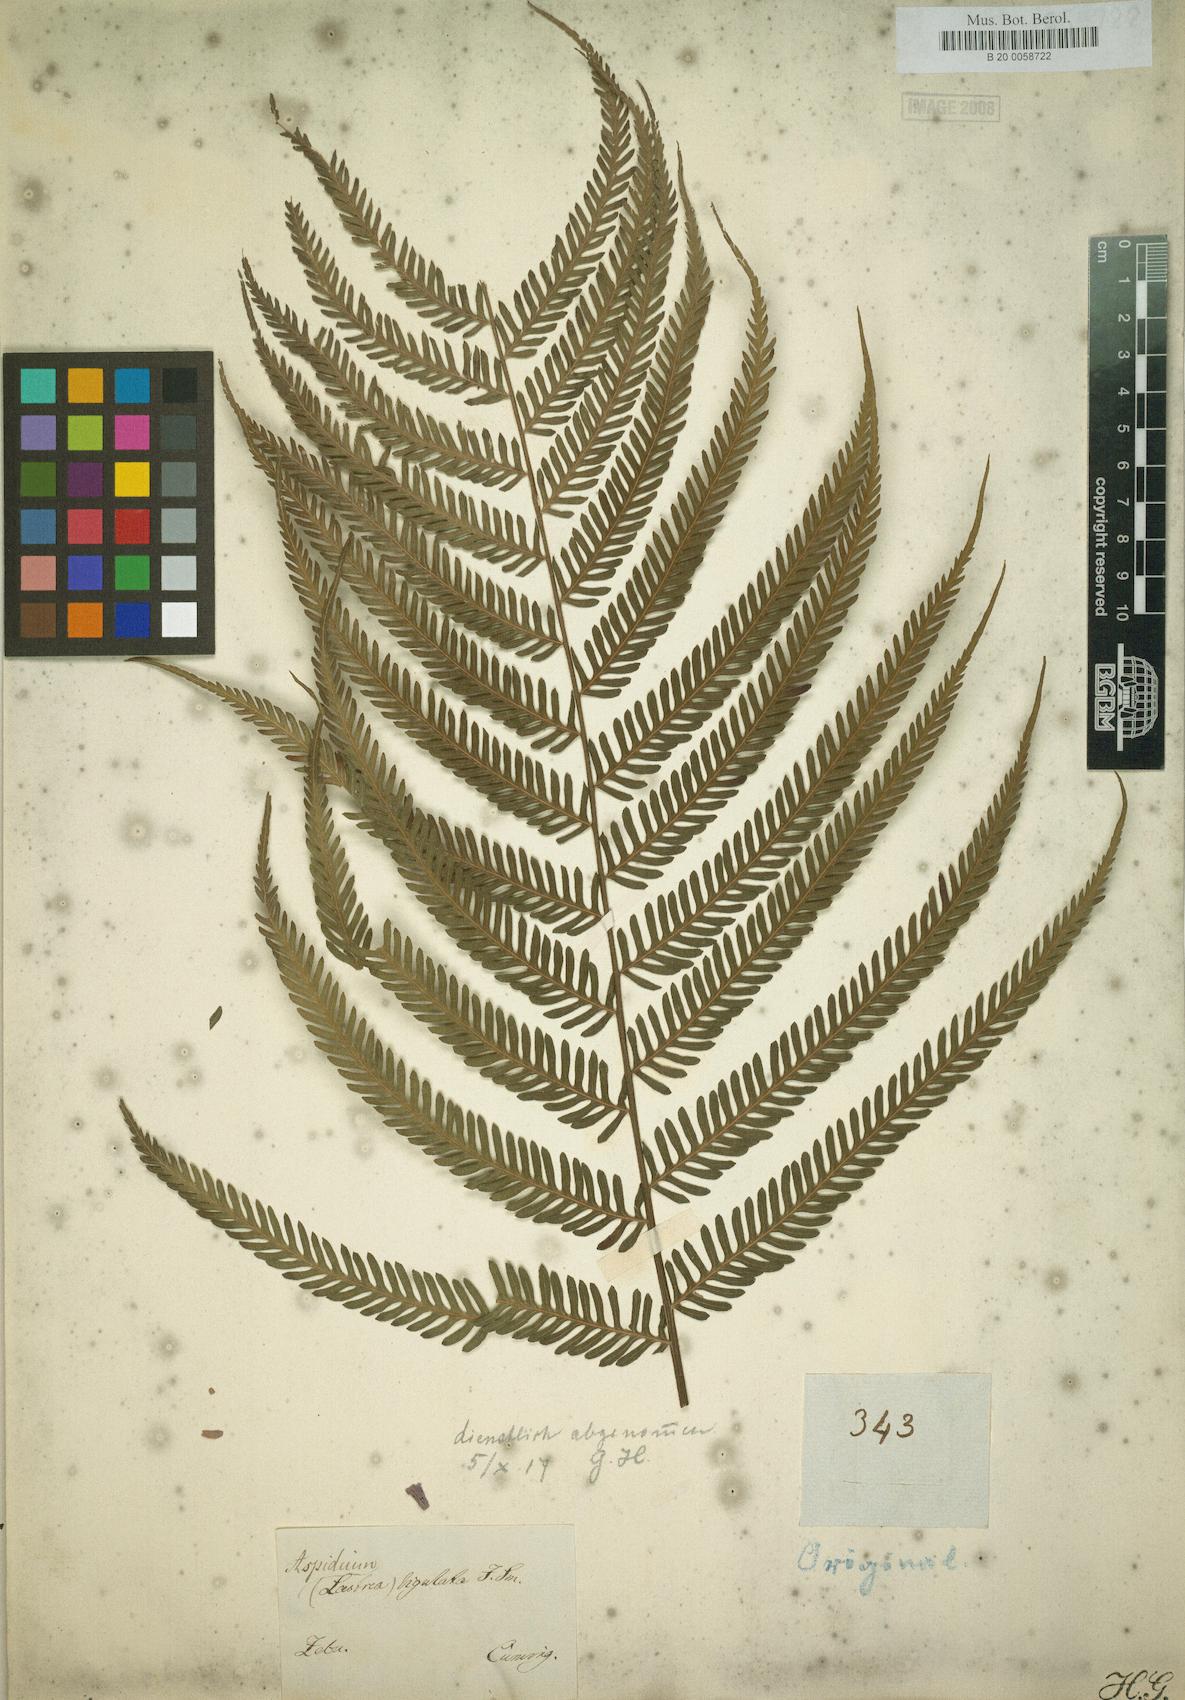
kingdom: Plantae
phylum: Tracheophyta
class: Polypodiopsida
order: Polypodiales
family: Thelypteridaceae
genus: Plesioneuron
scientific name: Plesioneuron ligulatum
